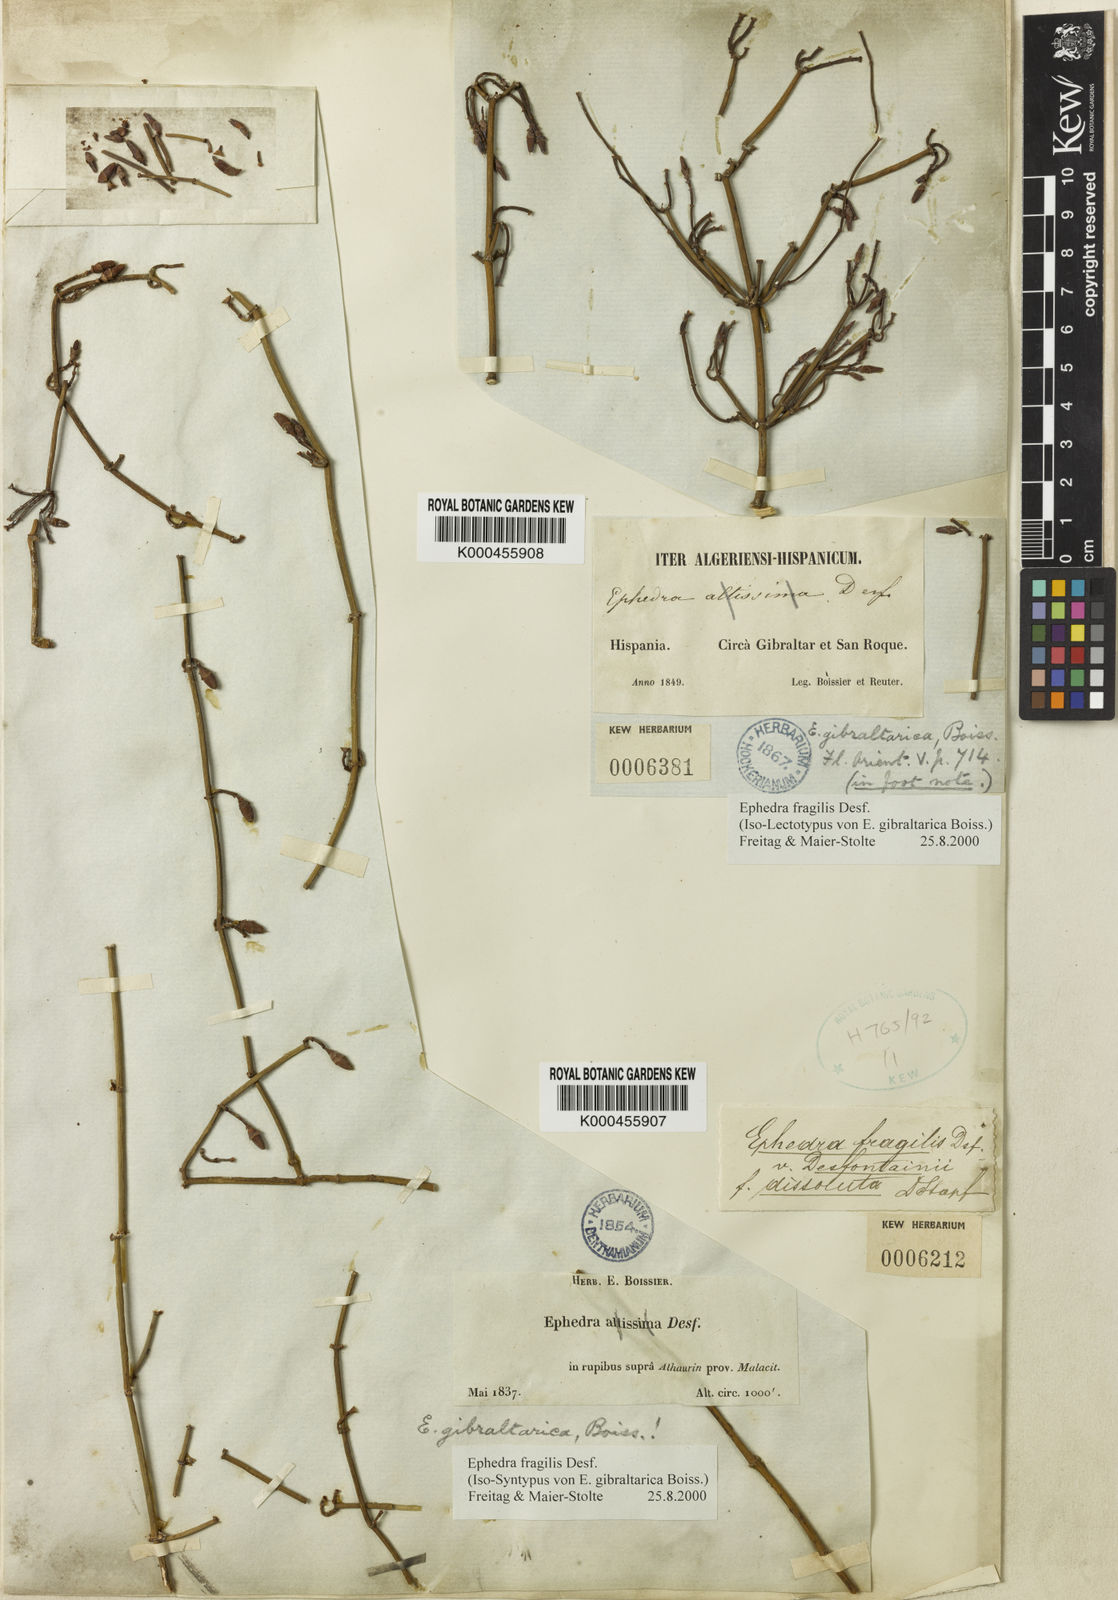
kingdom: Plantae
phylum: Tracheophyta
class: Gnetopsida
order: Ephedrales
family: Ephedraceae
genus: Ephedra
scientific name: Ephedra fragilis
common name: Joint pine
